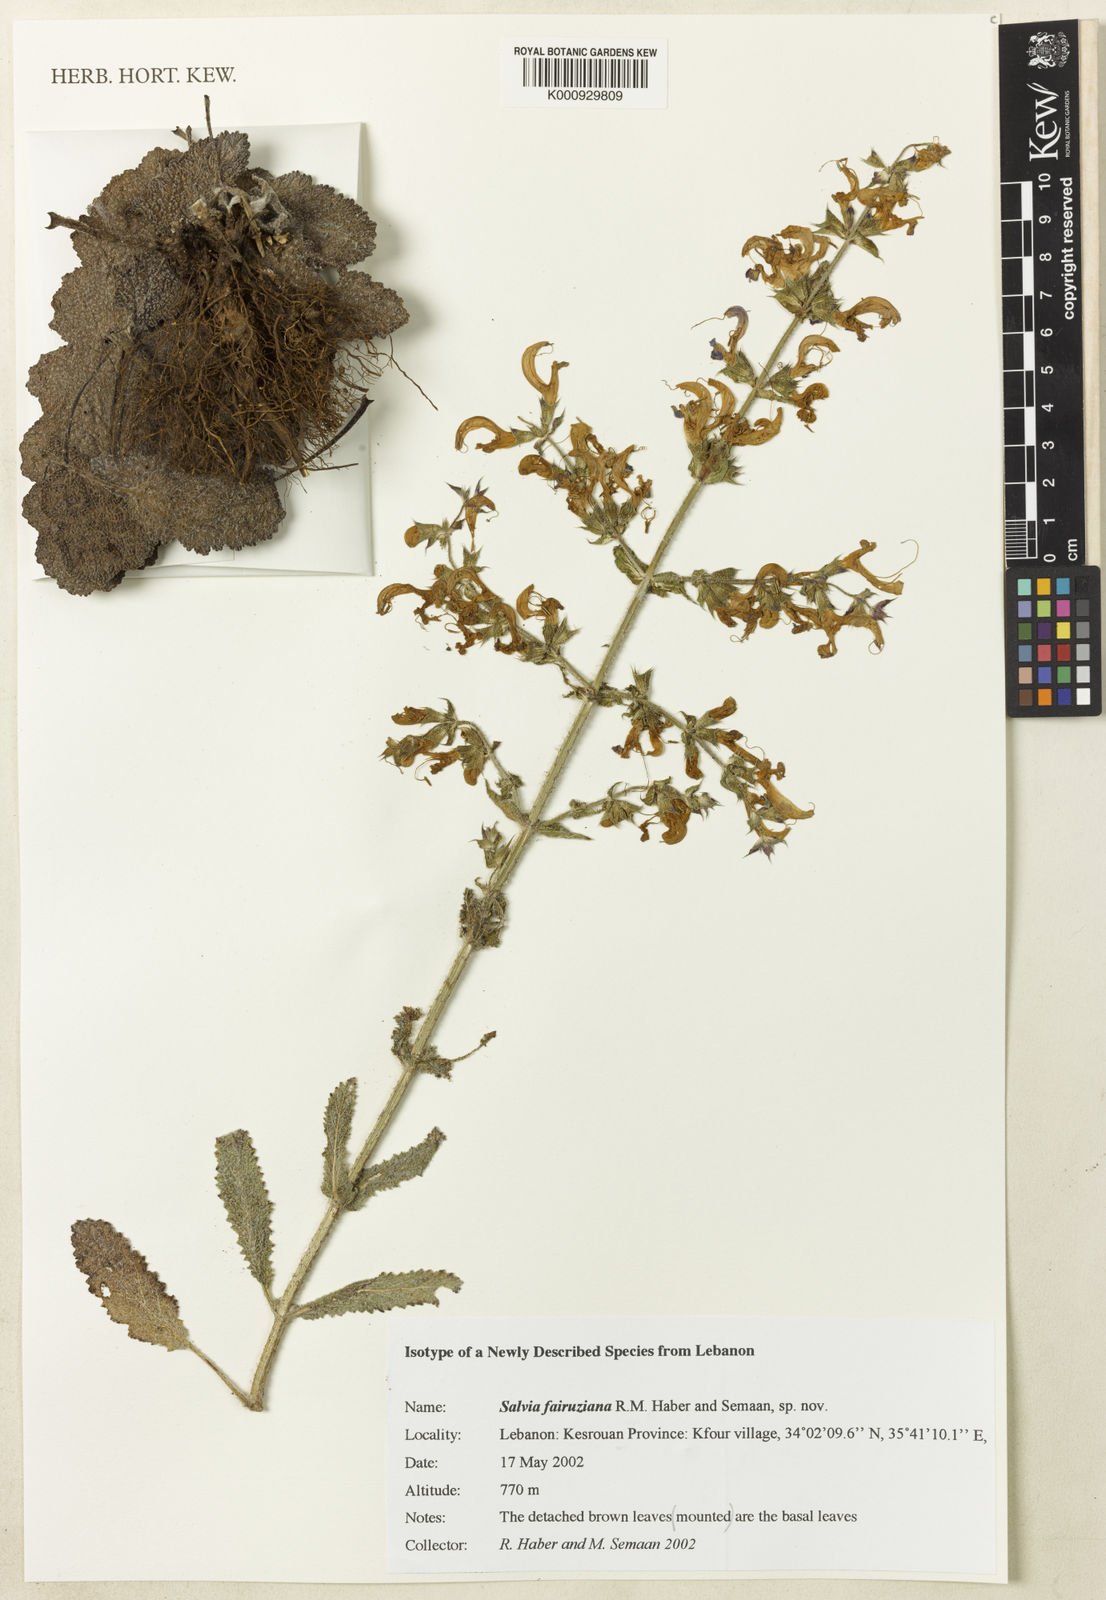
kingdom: Plantae
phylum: Tracheophyta
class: Magnoliopsida
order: Lamiales
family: Lamiaceae
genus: Salvia
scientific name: Salvia fairuziana
